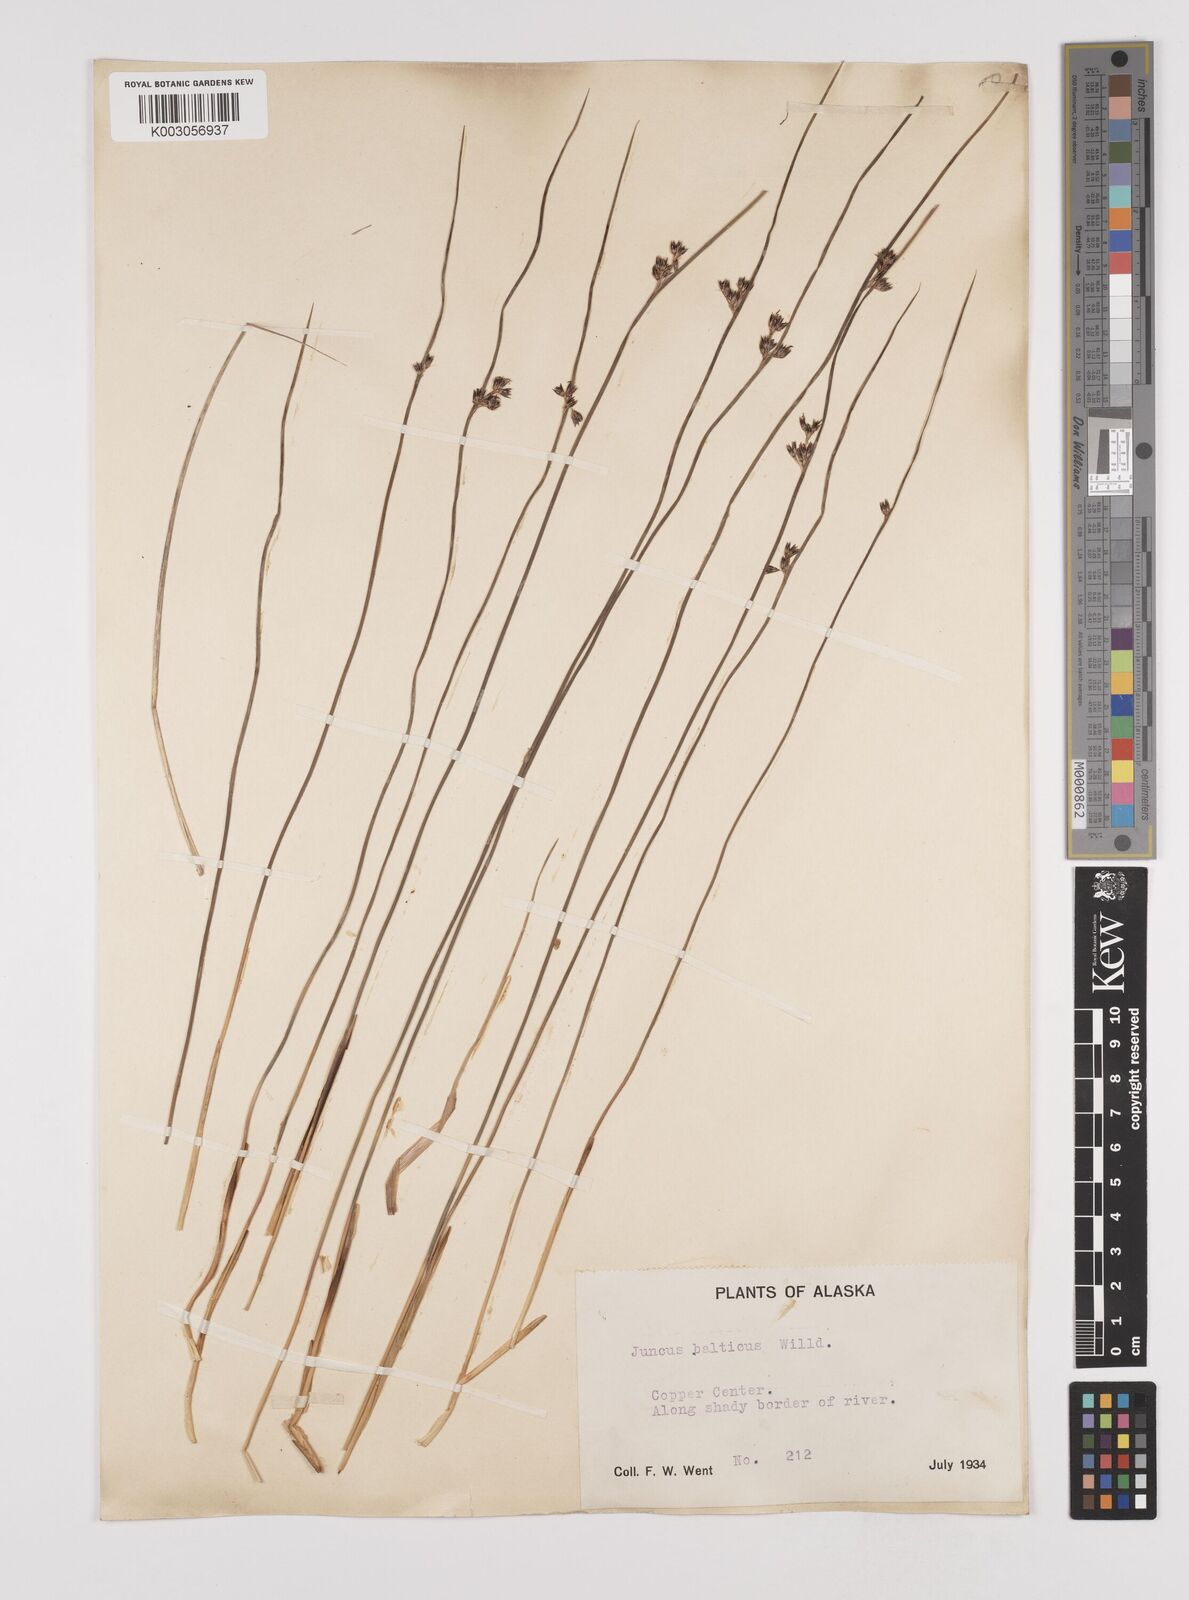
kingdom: Plantae
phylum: Tracheophyta
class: Liliopsida
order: Poales
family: Juncaceae
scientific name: Juncaceae
